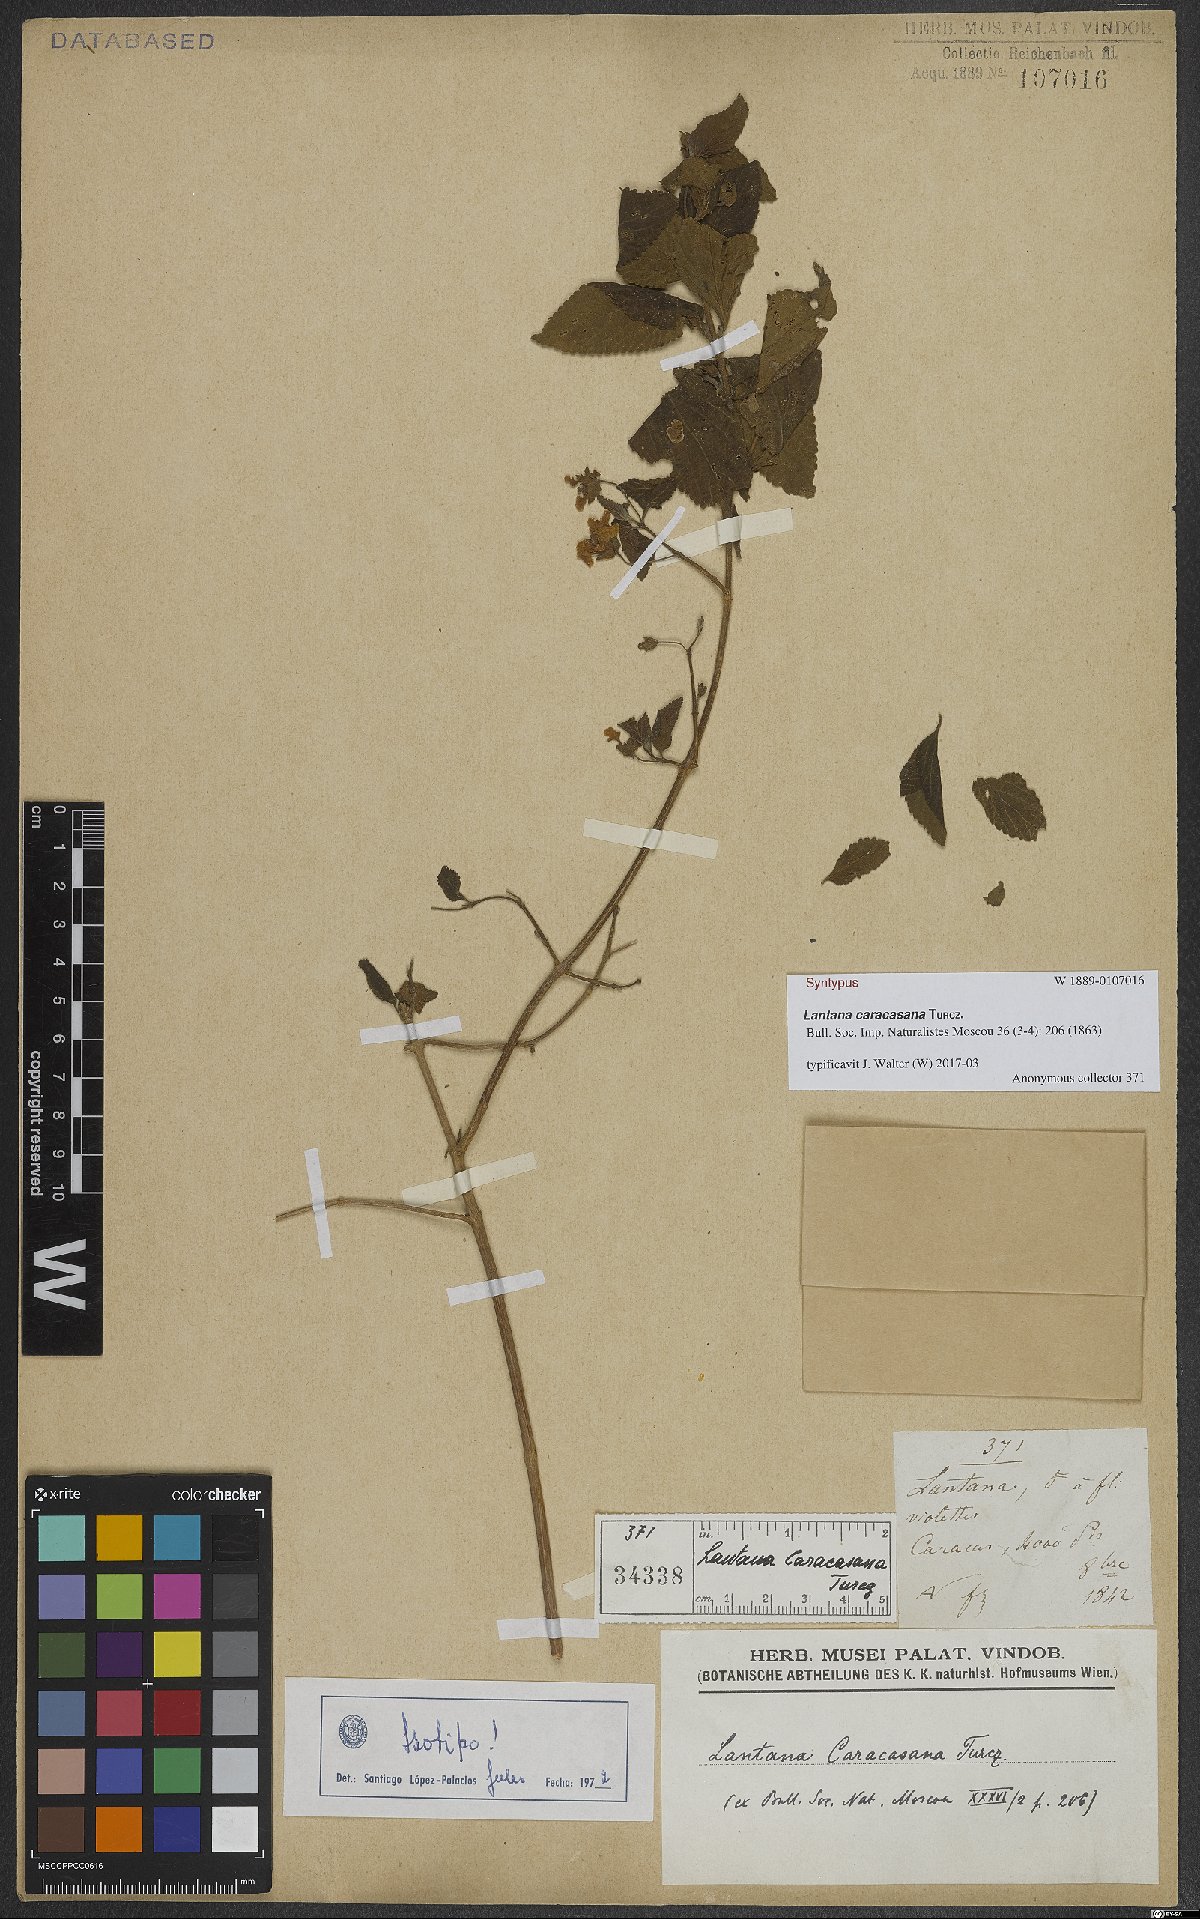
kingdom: Plantae
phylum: Tracheophyta
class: Magnoliopsida
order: Lamiales
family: Verbenaceae
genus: Lantana
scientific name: Lantana caracasana
